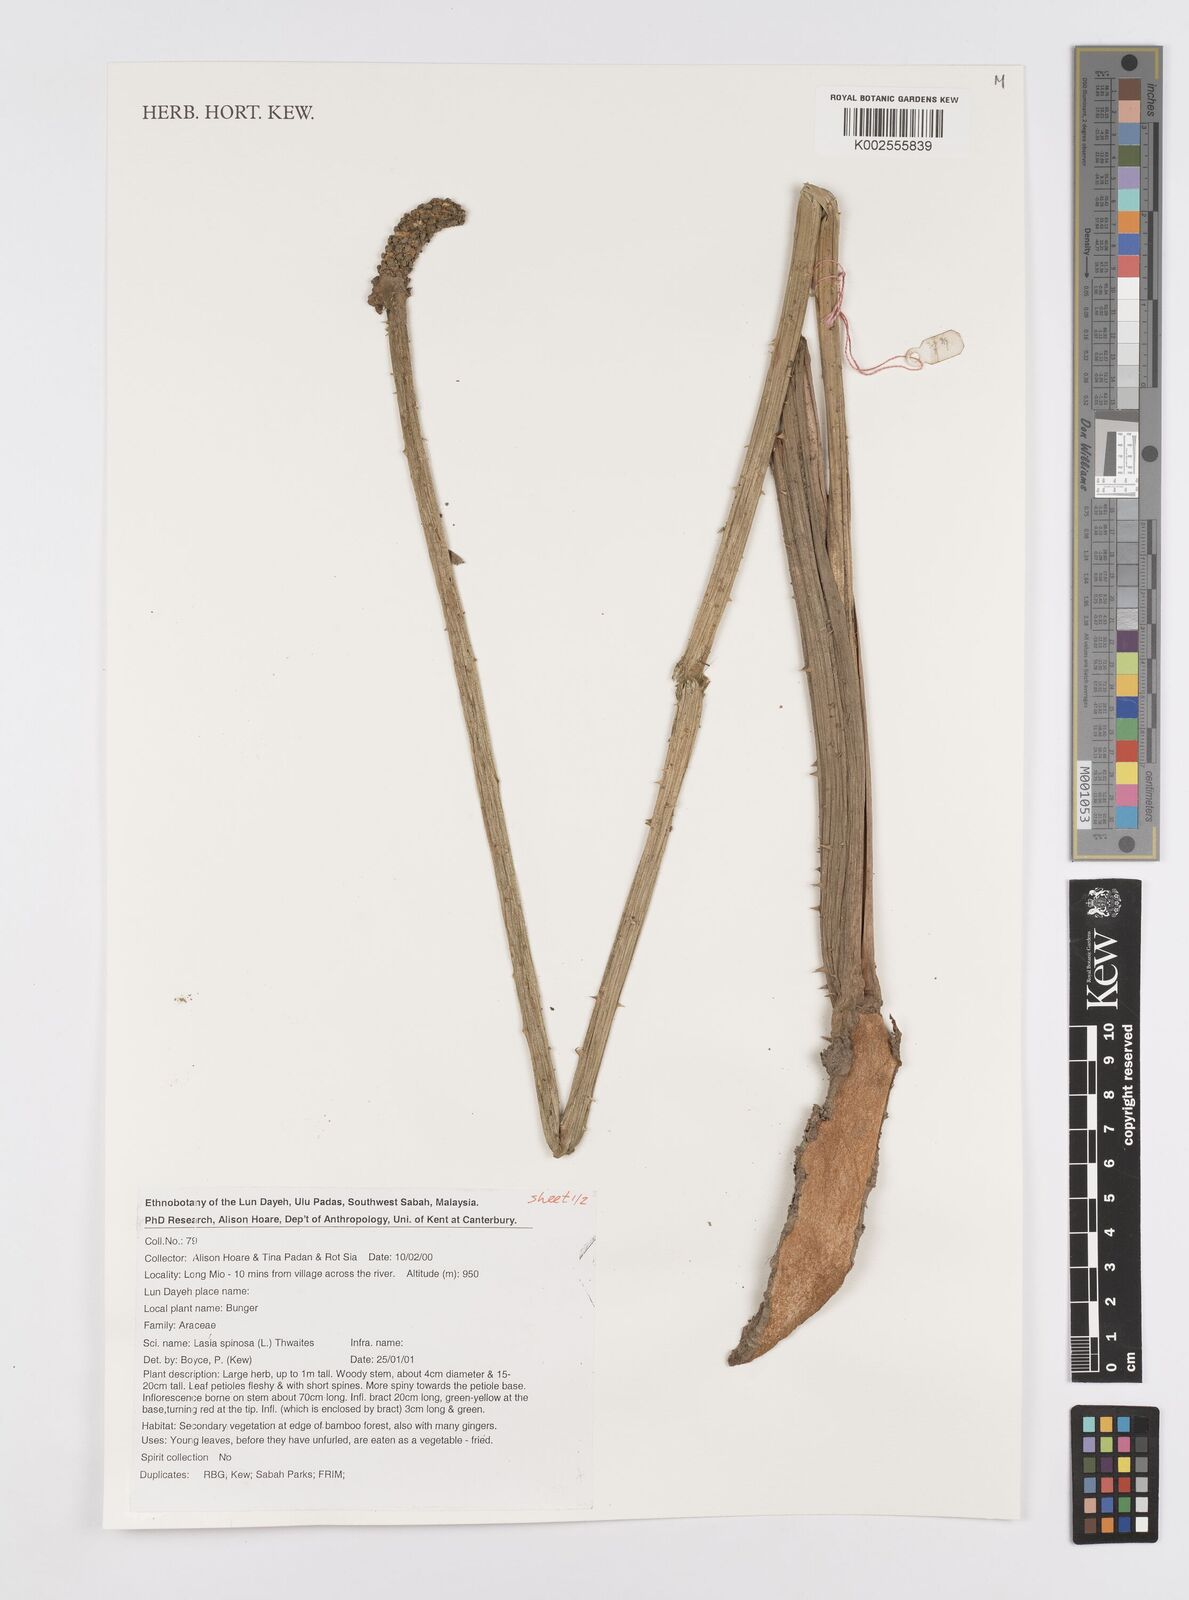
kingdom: Plantae
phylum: Tracheophyta
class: Liliopsida
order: Alismatales
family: Araceae
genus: Lasia
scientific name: Lasia spinosa
